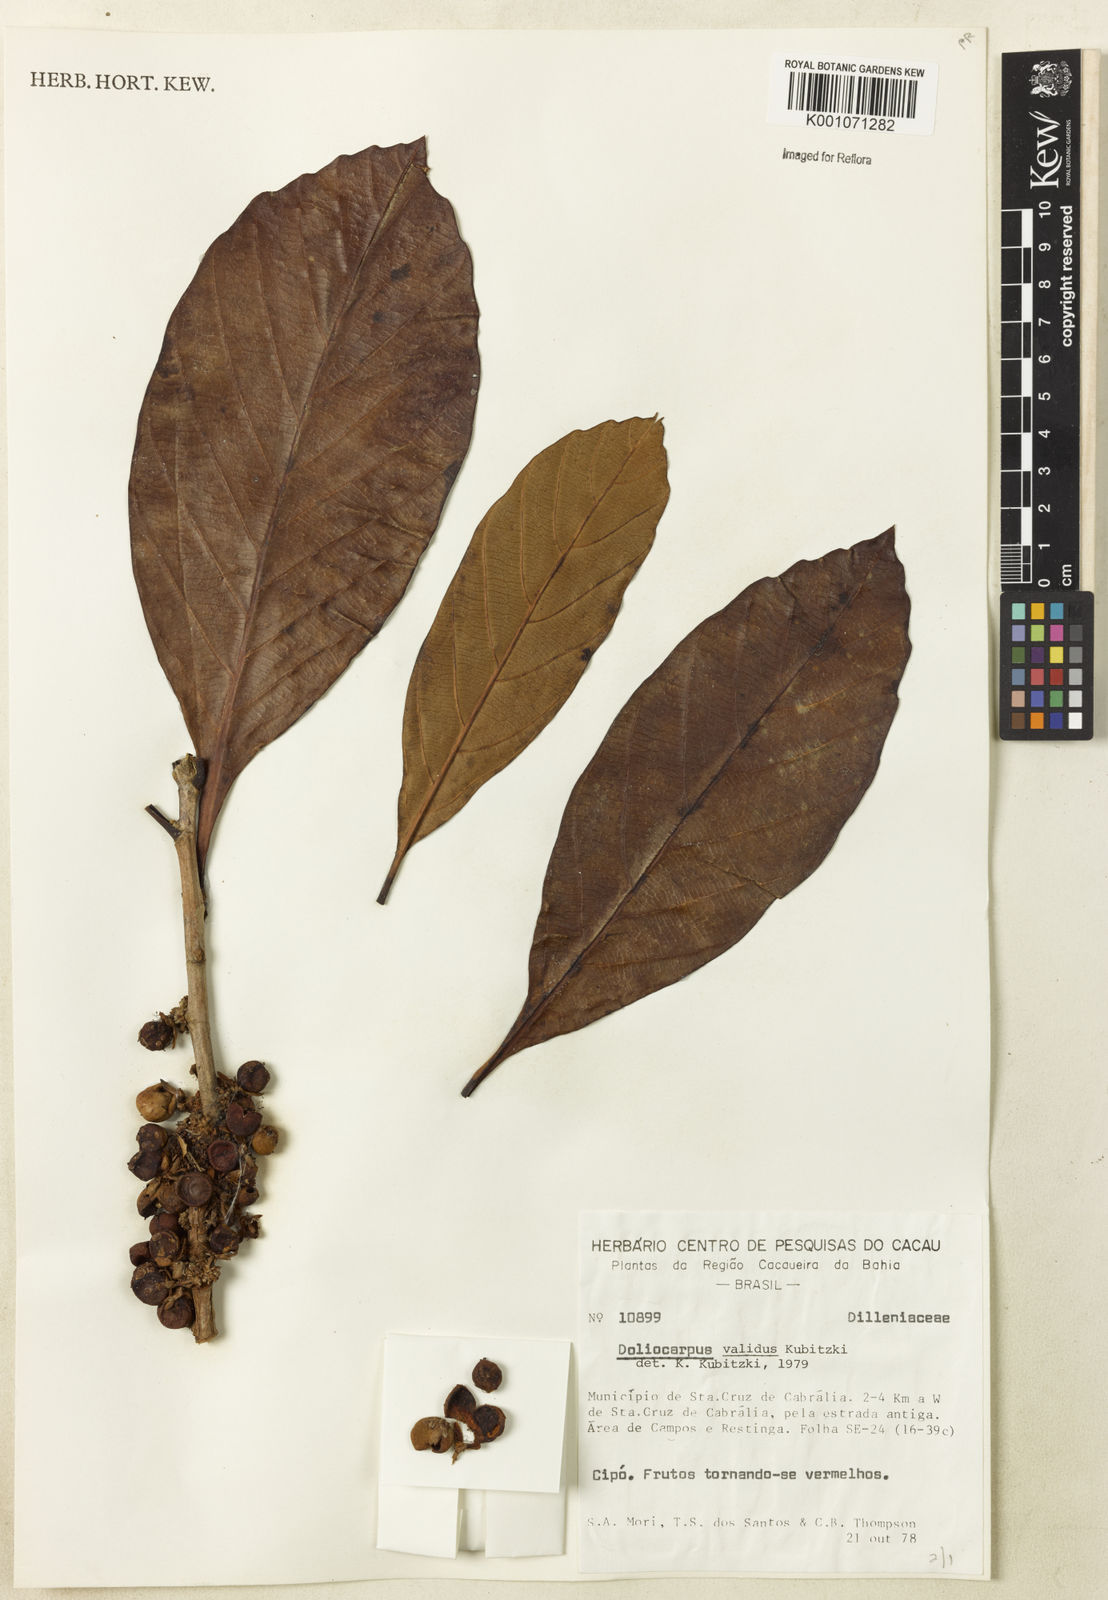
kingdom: Plantae
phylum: Tracheophyta
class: Magnoliopsida
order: Dilleniales
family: Dilleniaceae
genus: Doliocarpus
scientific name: Doliocarpus validus
